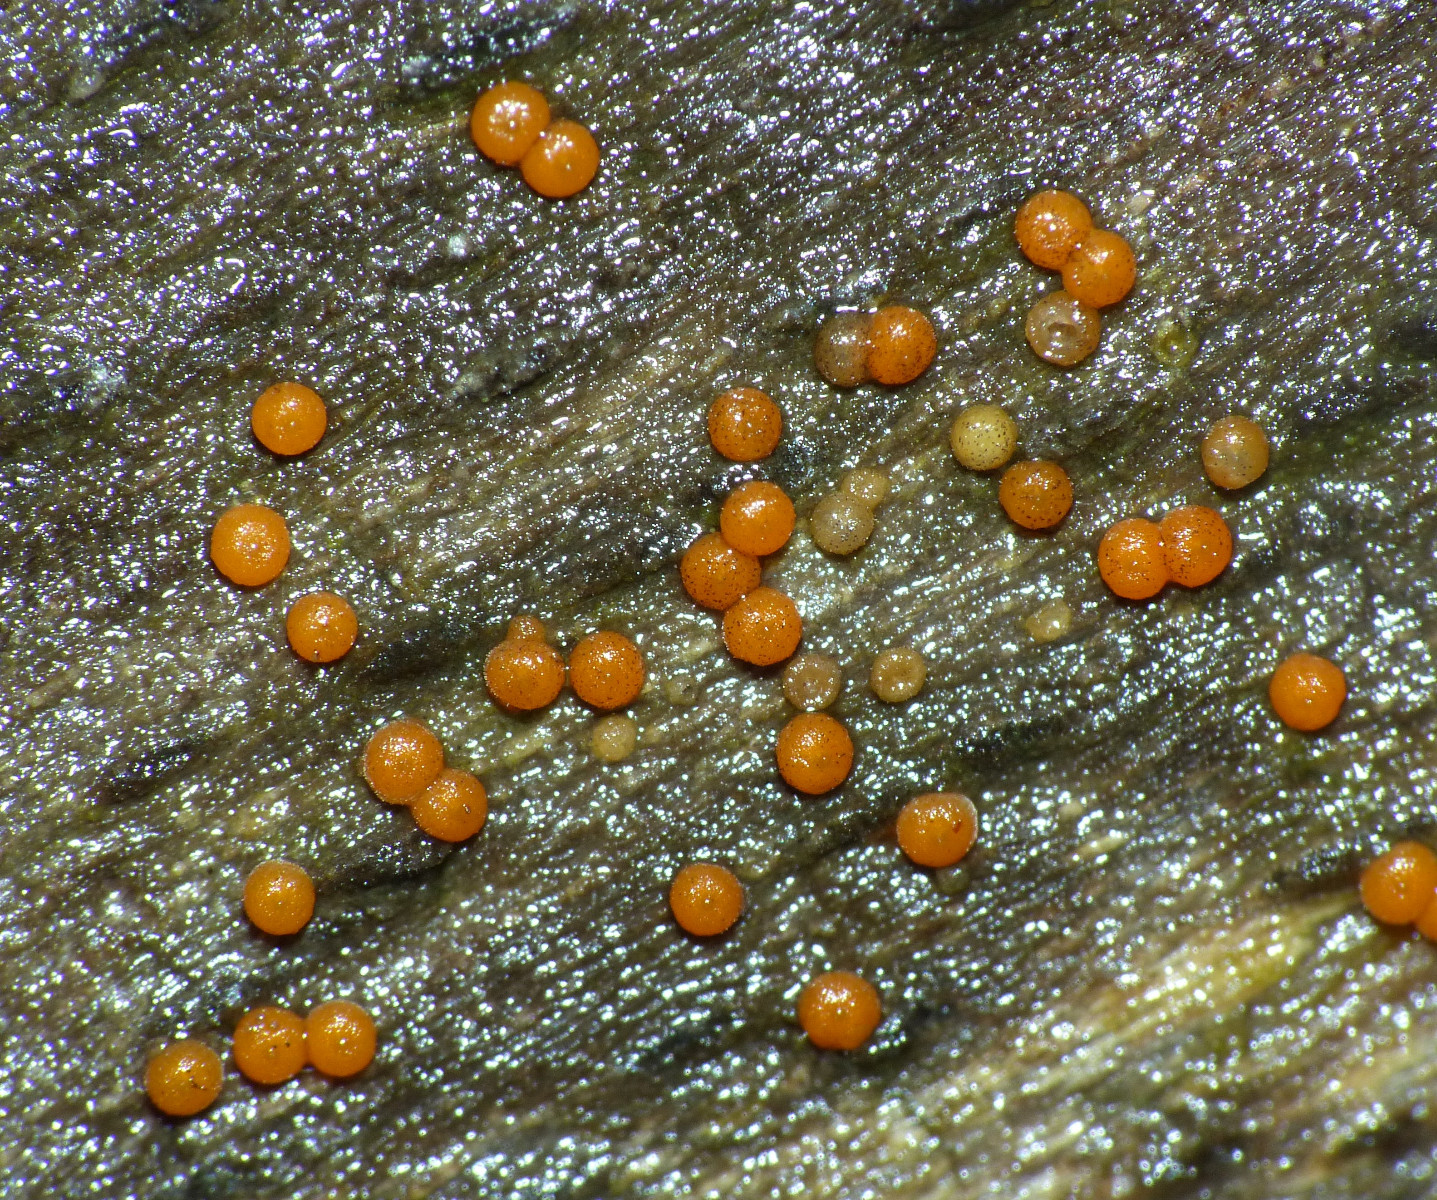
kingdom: Fungi
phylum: Ascomycota
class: Sordariomycetes
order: Hypocreales
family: Nectriaceae
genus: Hydropisphaera
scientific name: Hydropisphaera peziza
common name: skålformet gyldenkerne
